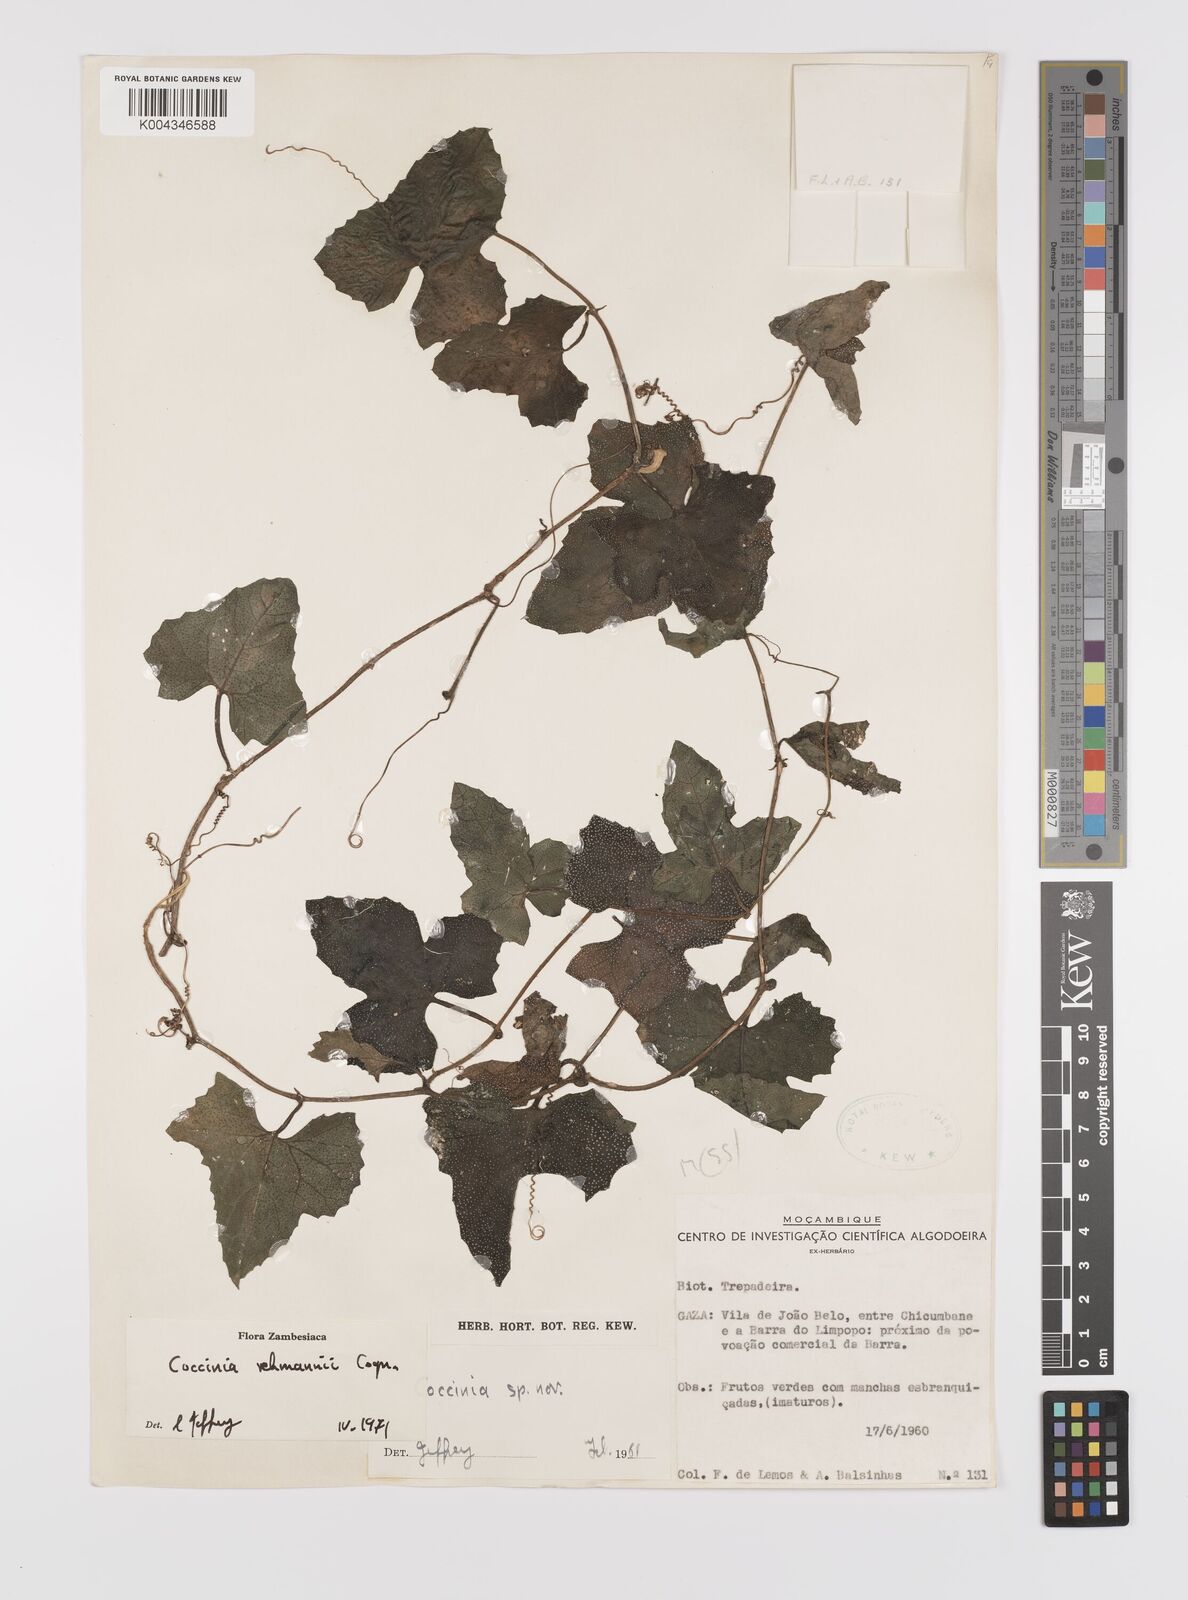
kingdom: Plantae
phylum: Tracheophyta
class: Magnoliopsida
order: Cucurbitales
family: Cucurbitaceae
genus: Coccinia
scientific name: Coccinia rehmannii
